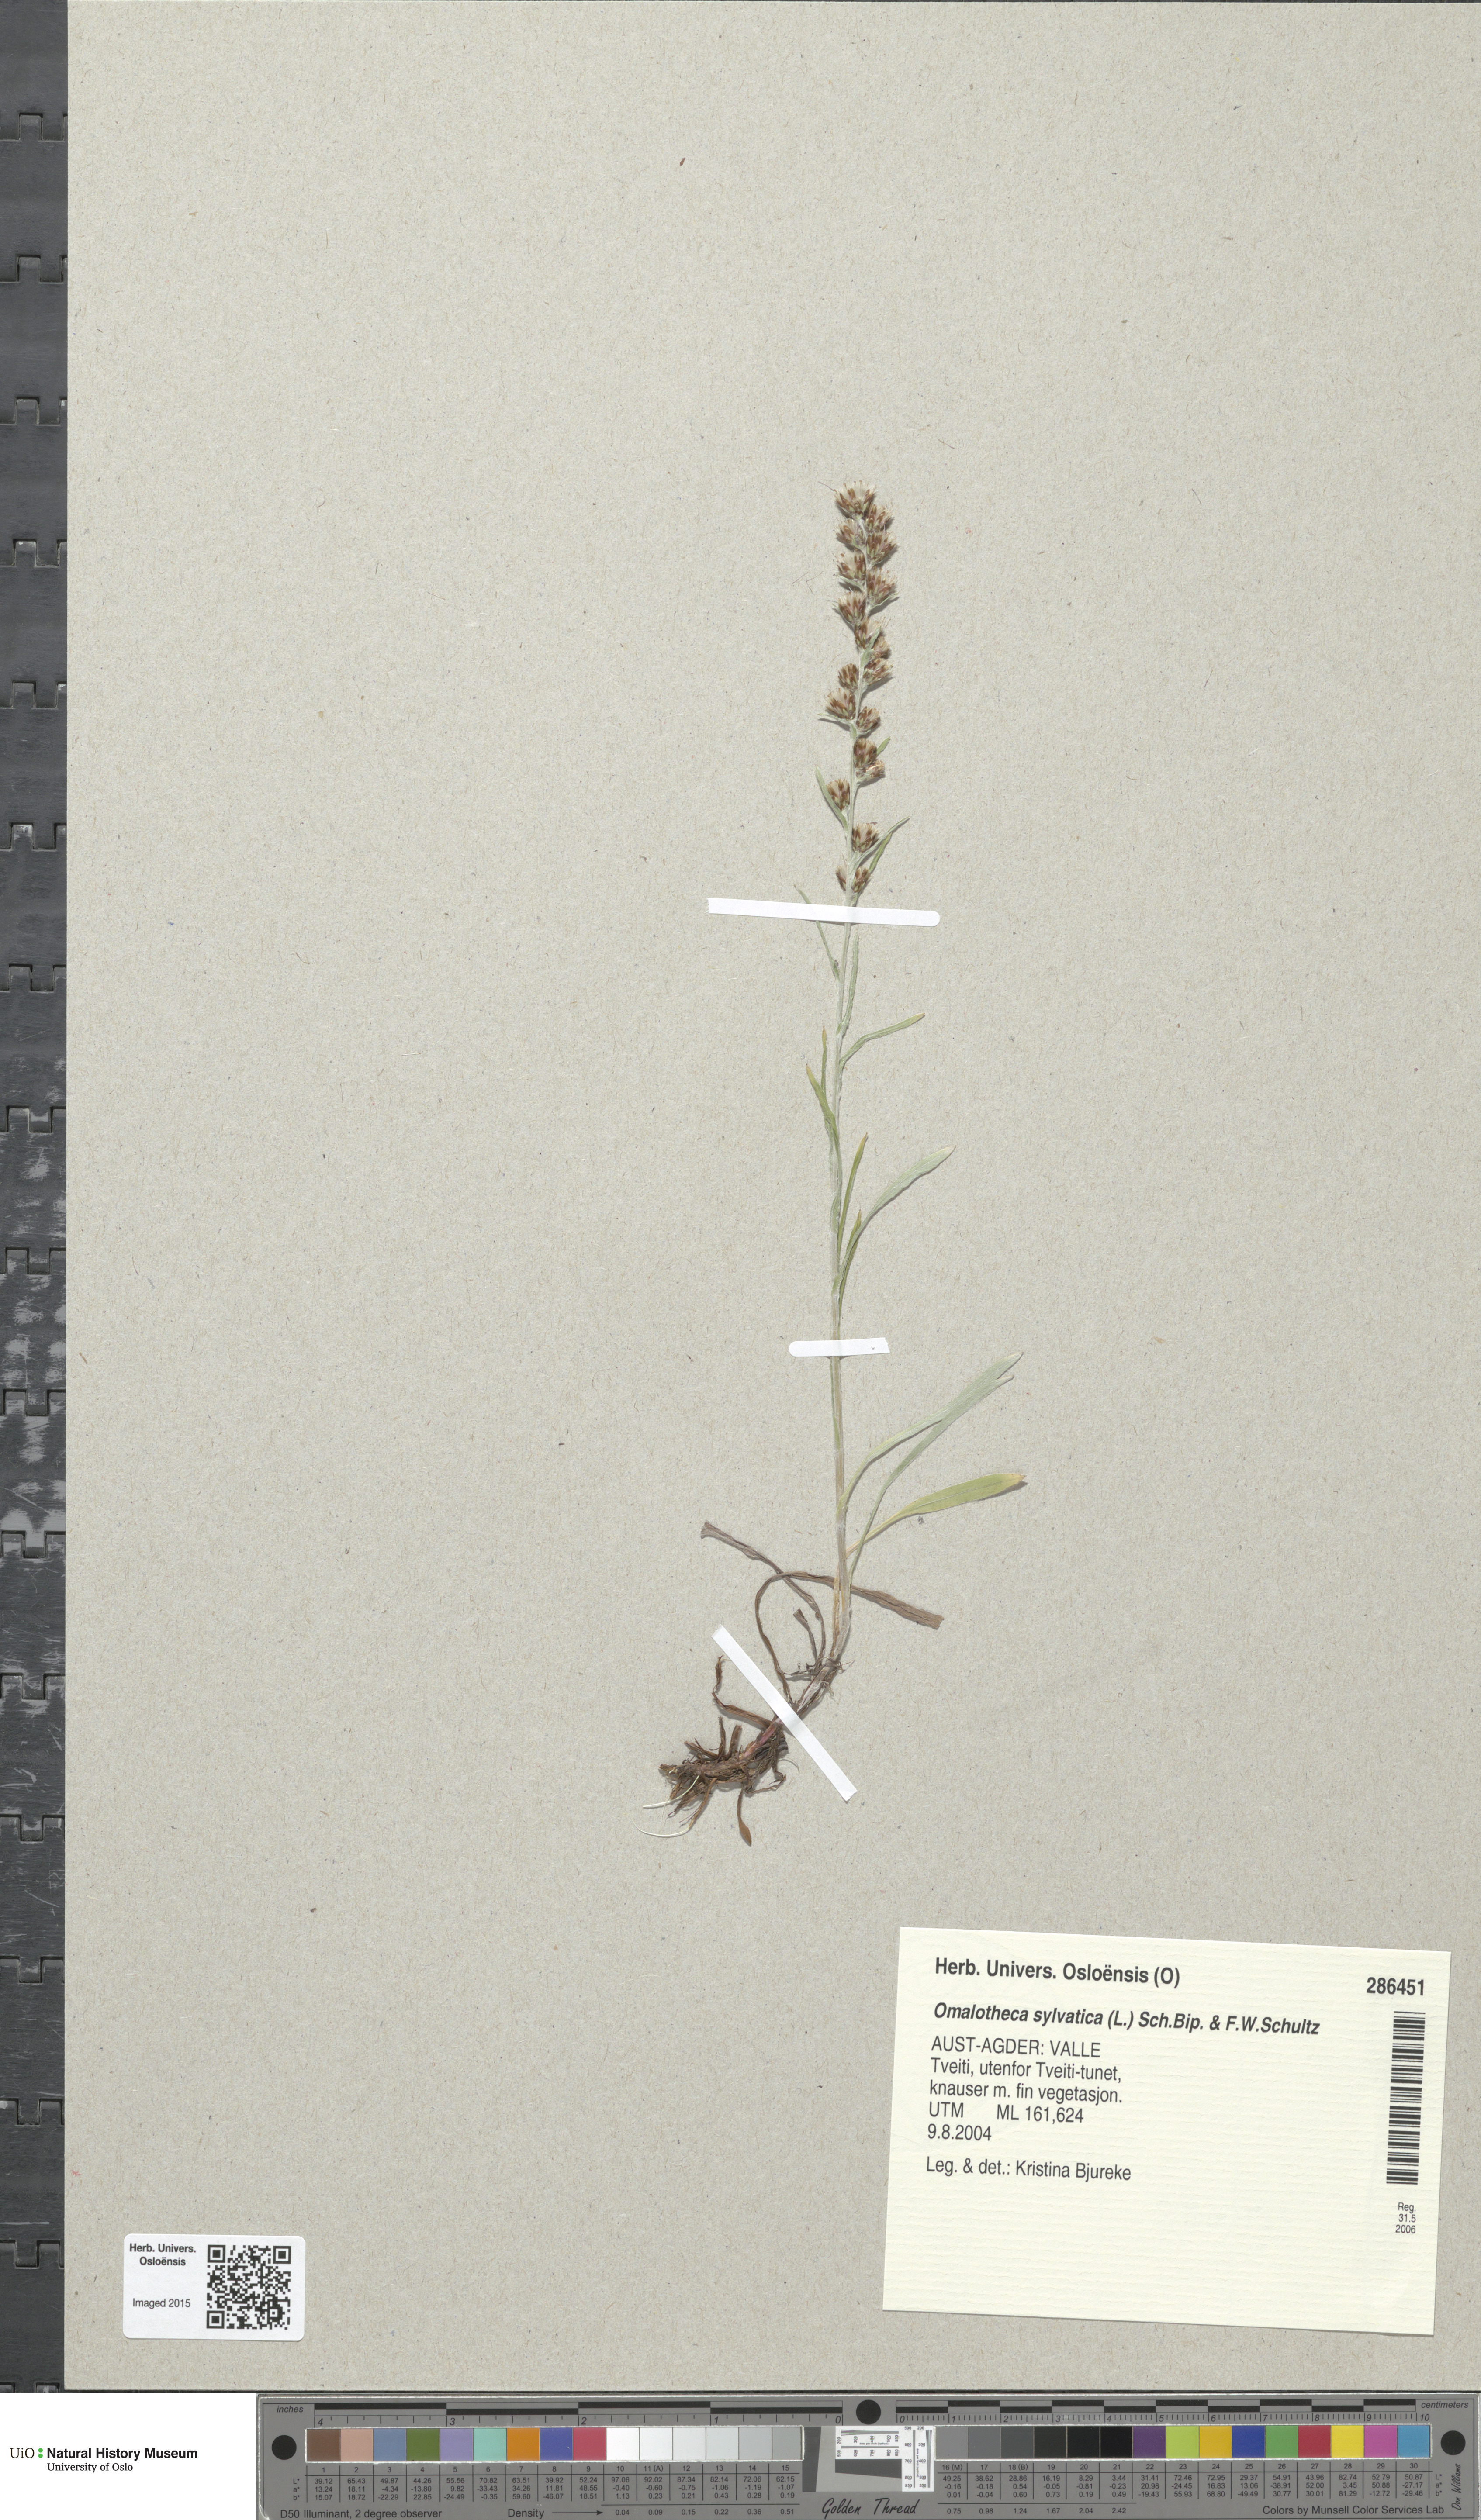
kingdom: Plantae
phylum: Tracheophyta
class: Magnoliopsida
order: Asterales
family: Asteraceae
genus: Omalotheca
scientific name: Omalotheca sylvatica
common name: Heath cudweed
